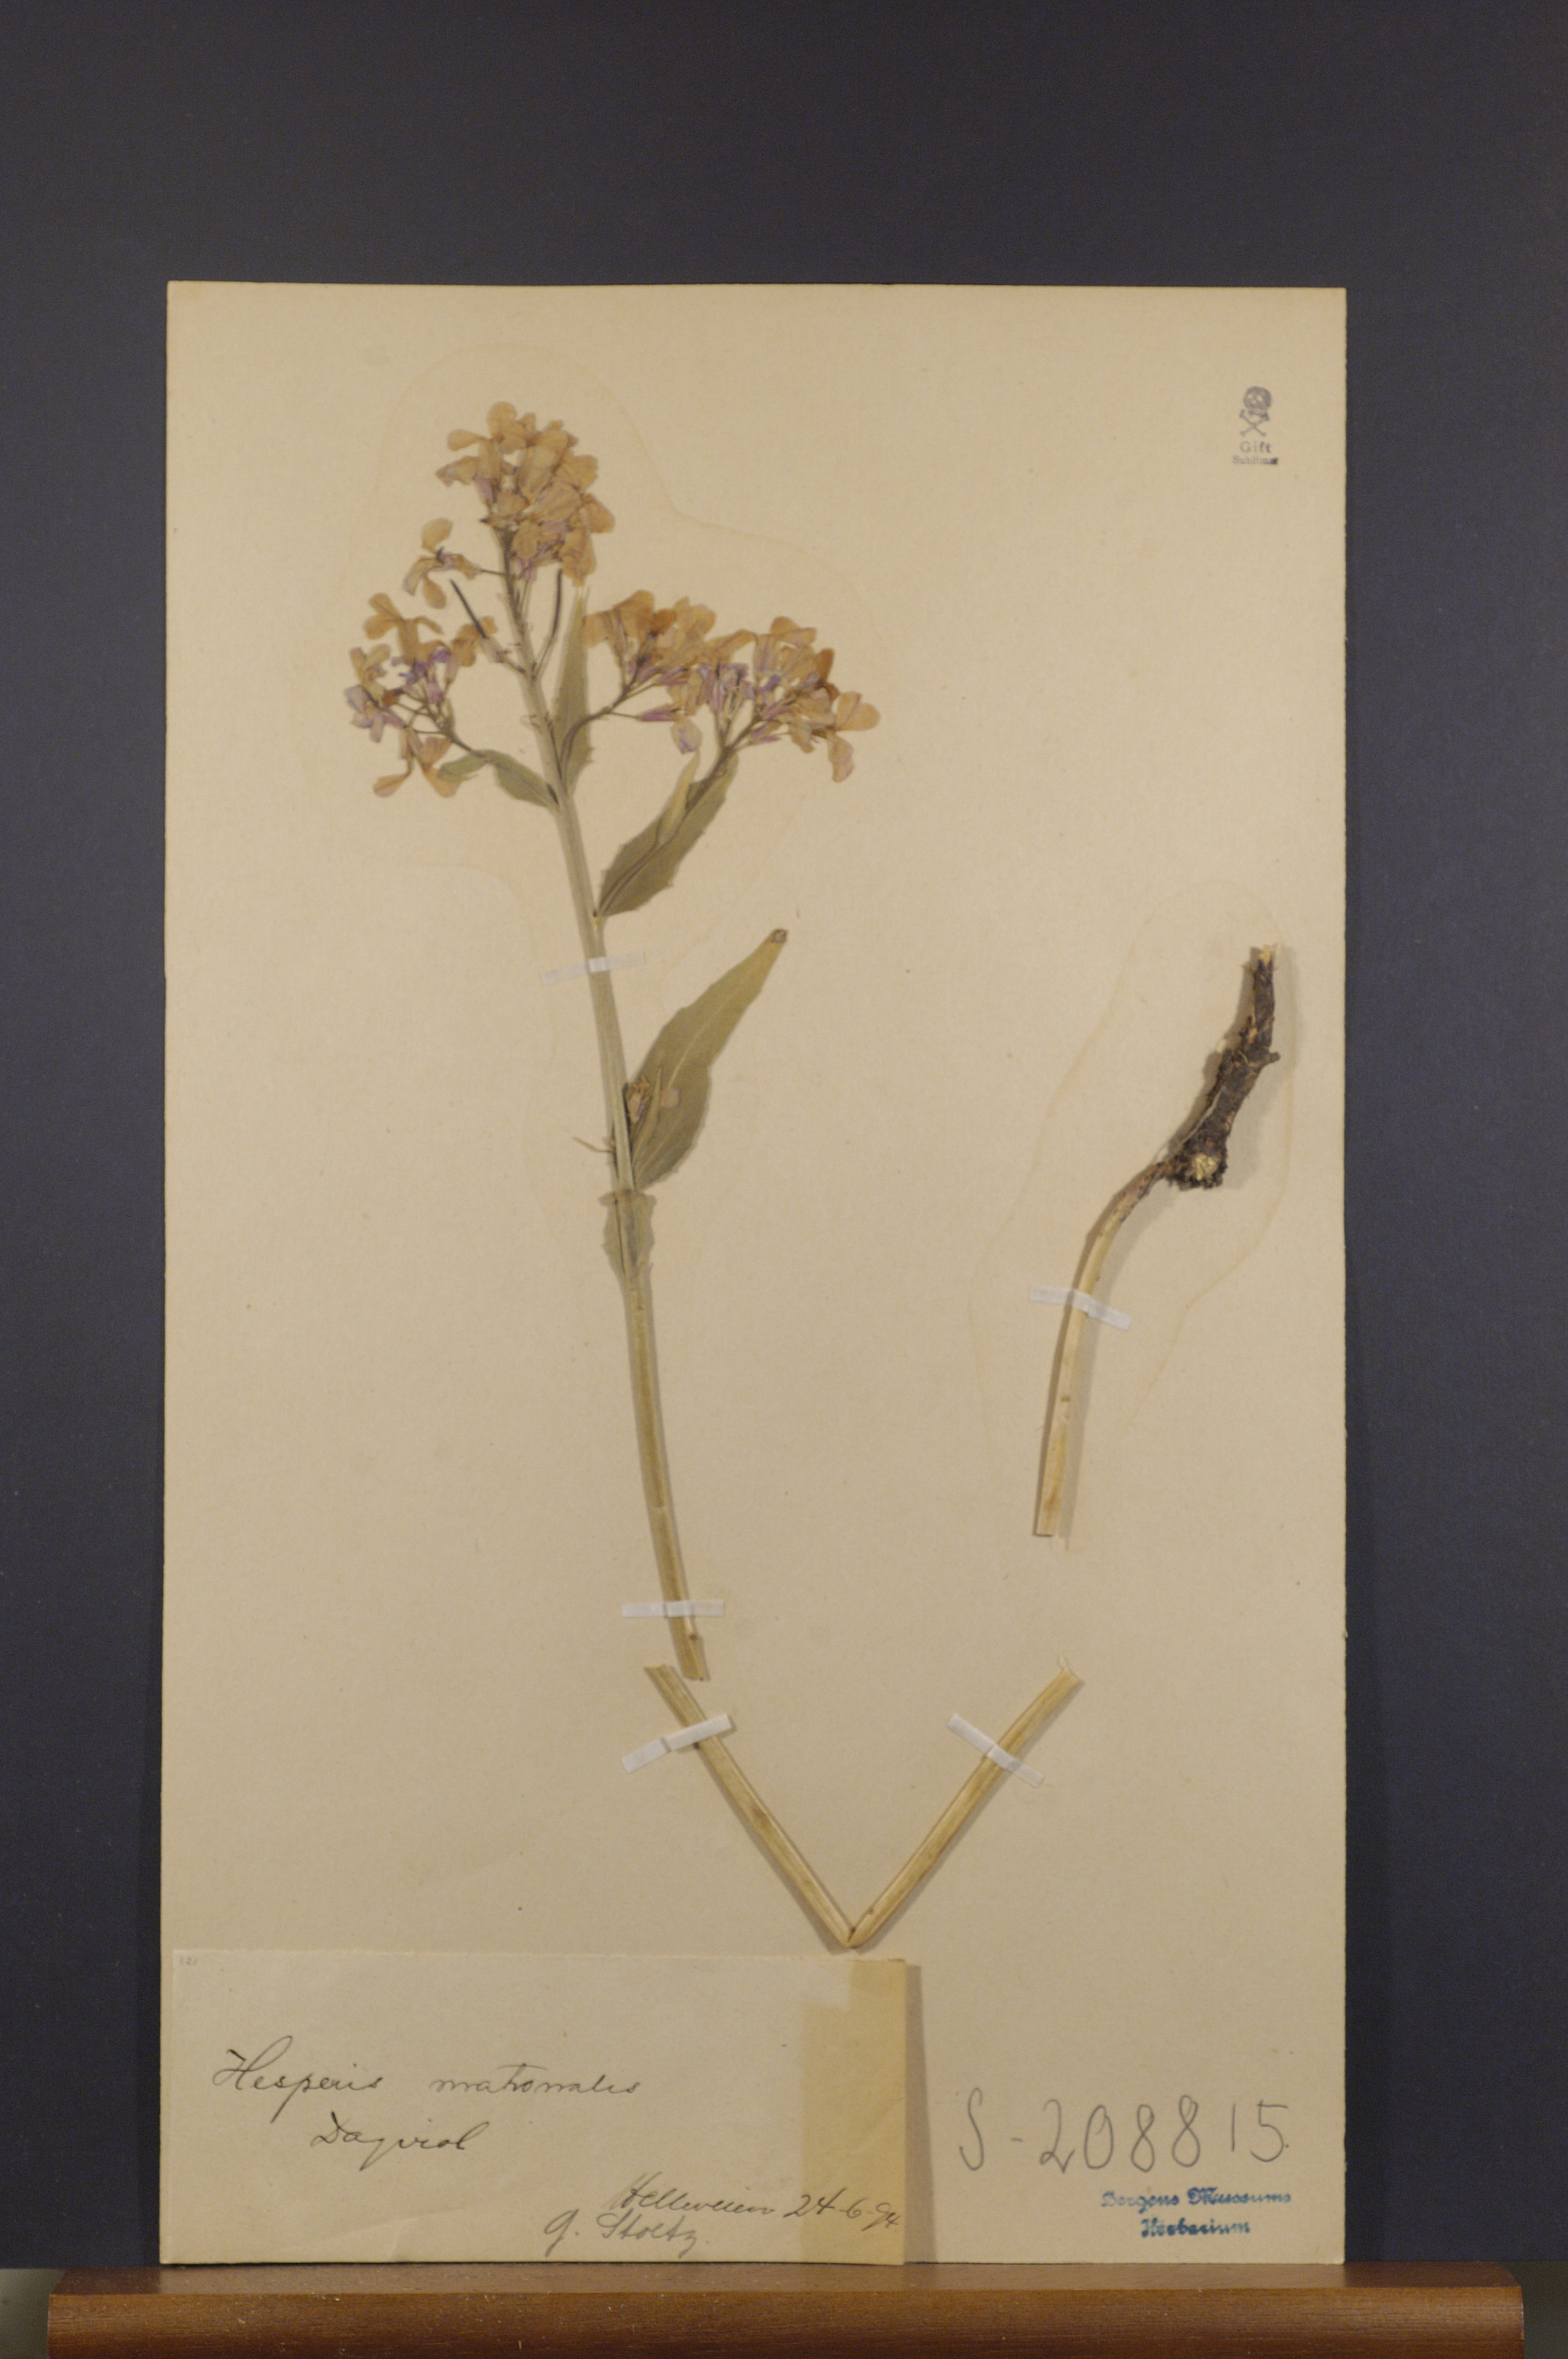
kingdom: Plantae
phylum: Tracheophyta
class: Magnoliopsida
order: Brassicales
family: Brassicaceae
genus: Hesperis
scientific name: Hesperis matronalis
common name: Dame's-violet
